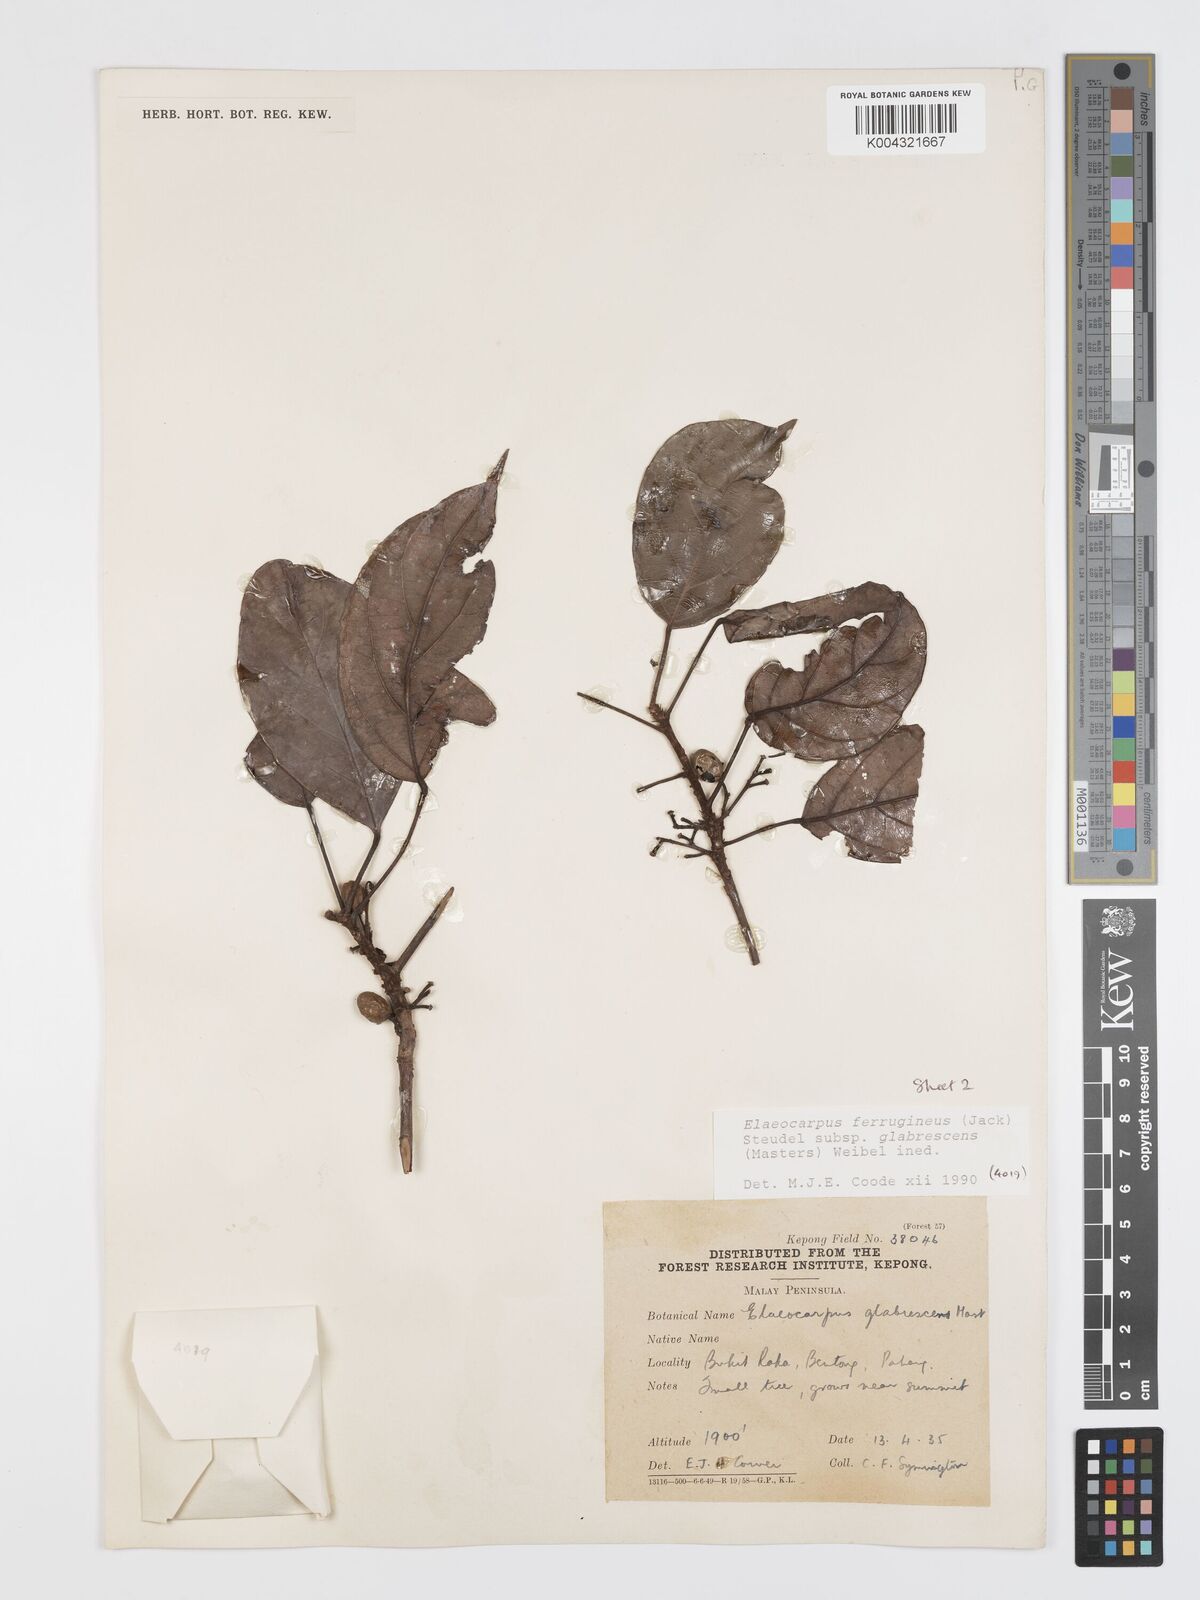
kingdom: Plantae
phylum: Tracheophyta
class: Magnoliopsida
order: Oxalidales
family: Elaeocarpaceae
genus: Elaeocarpus
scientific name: Elaeocarpus ferrugineus
